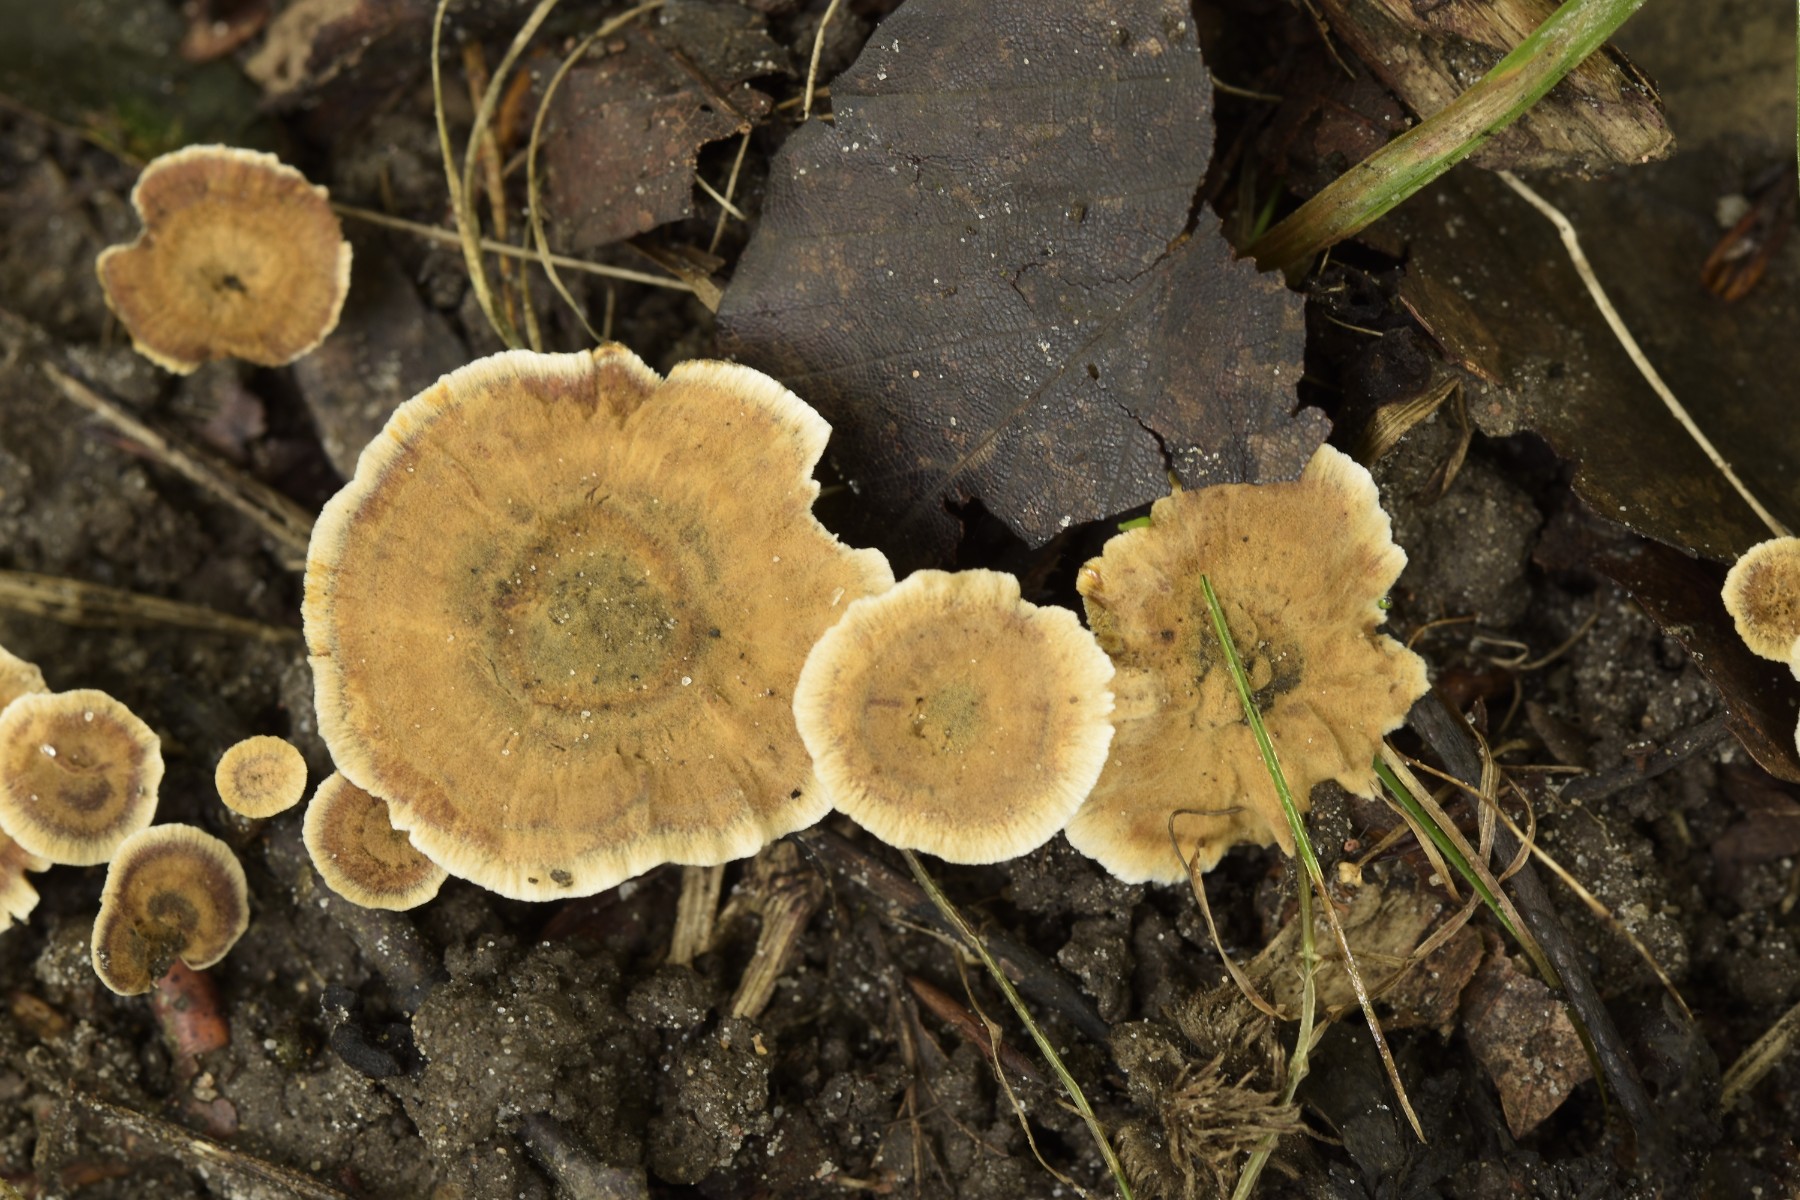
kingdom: Fungi
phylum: Basidiomycota
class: Agaricomycetes
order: Hymenochaetales
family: Hymenochaetaceae
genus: Coltricia
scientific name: Coltricia perennis
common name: almindelig sandporesvamp
